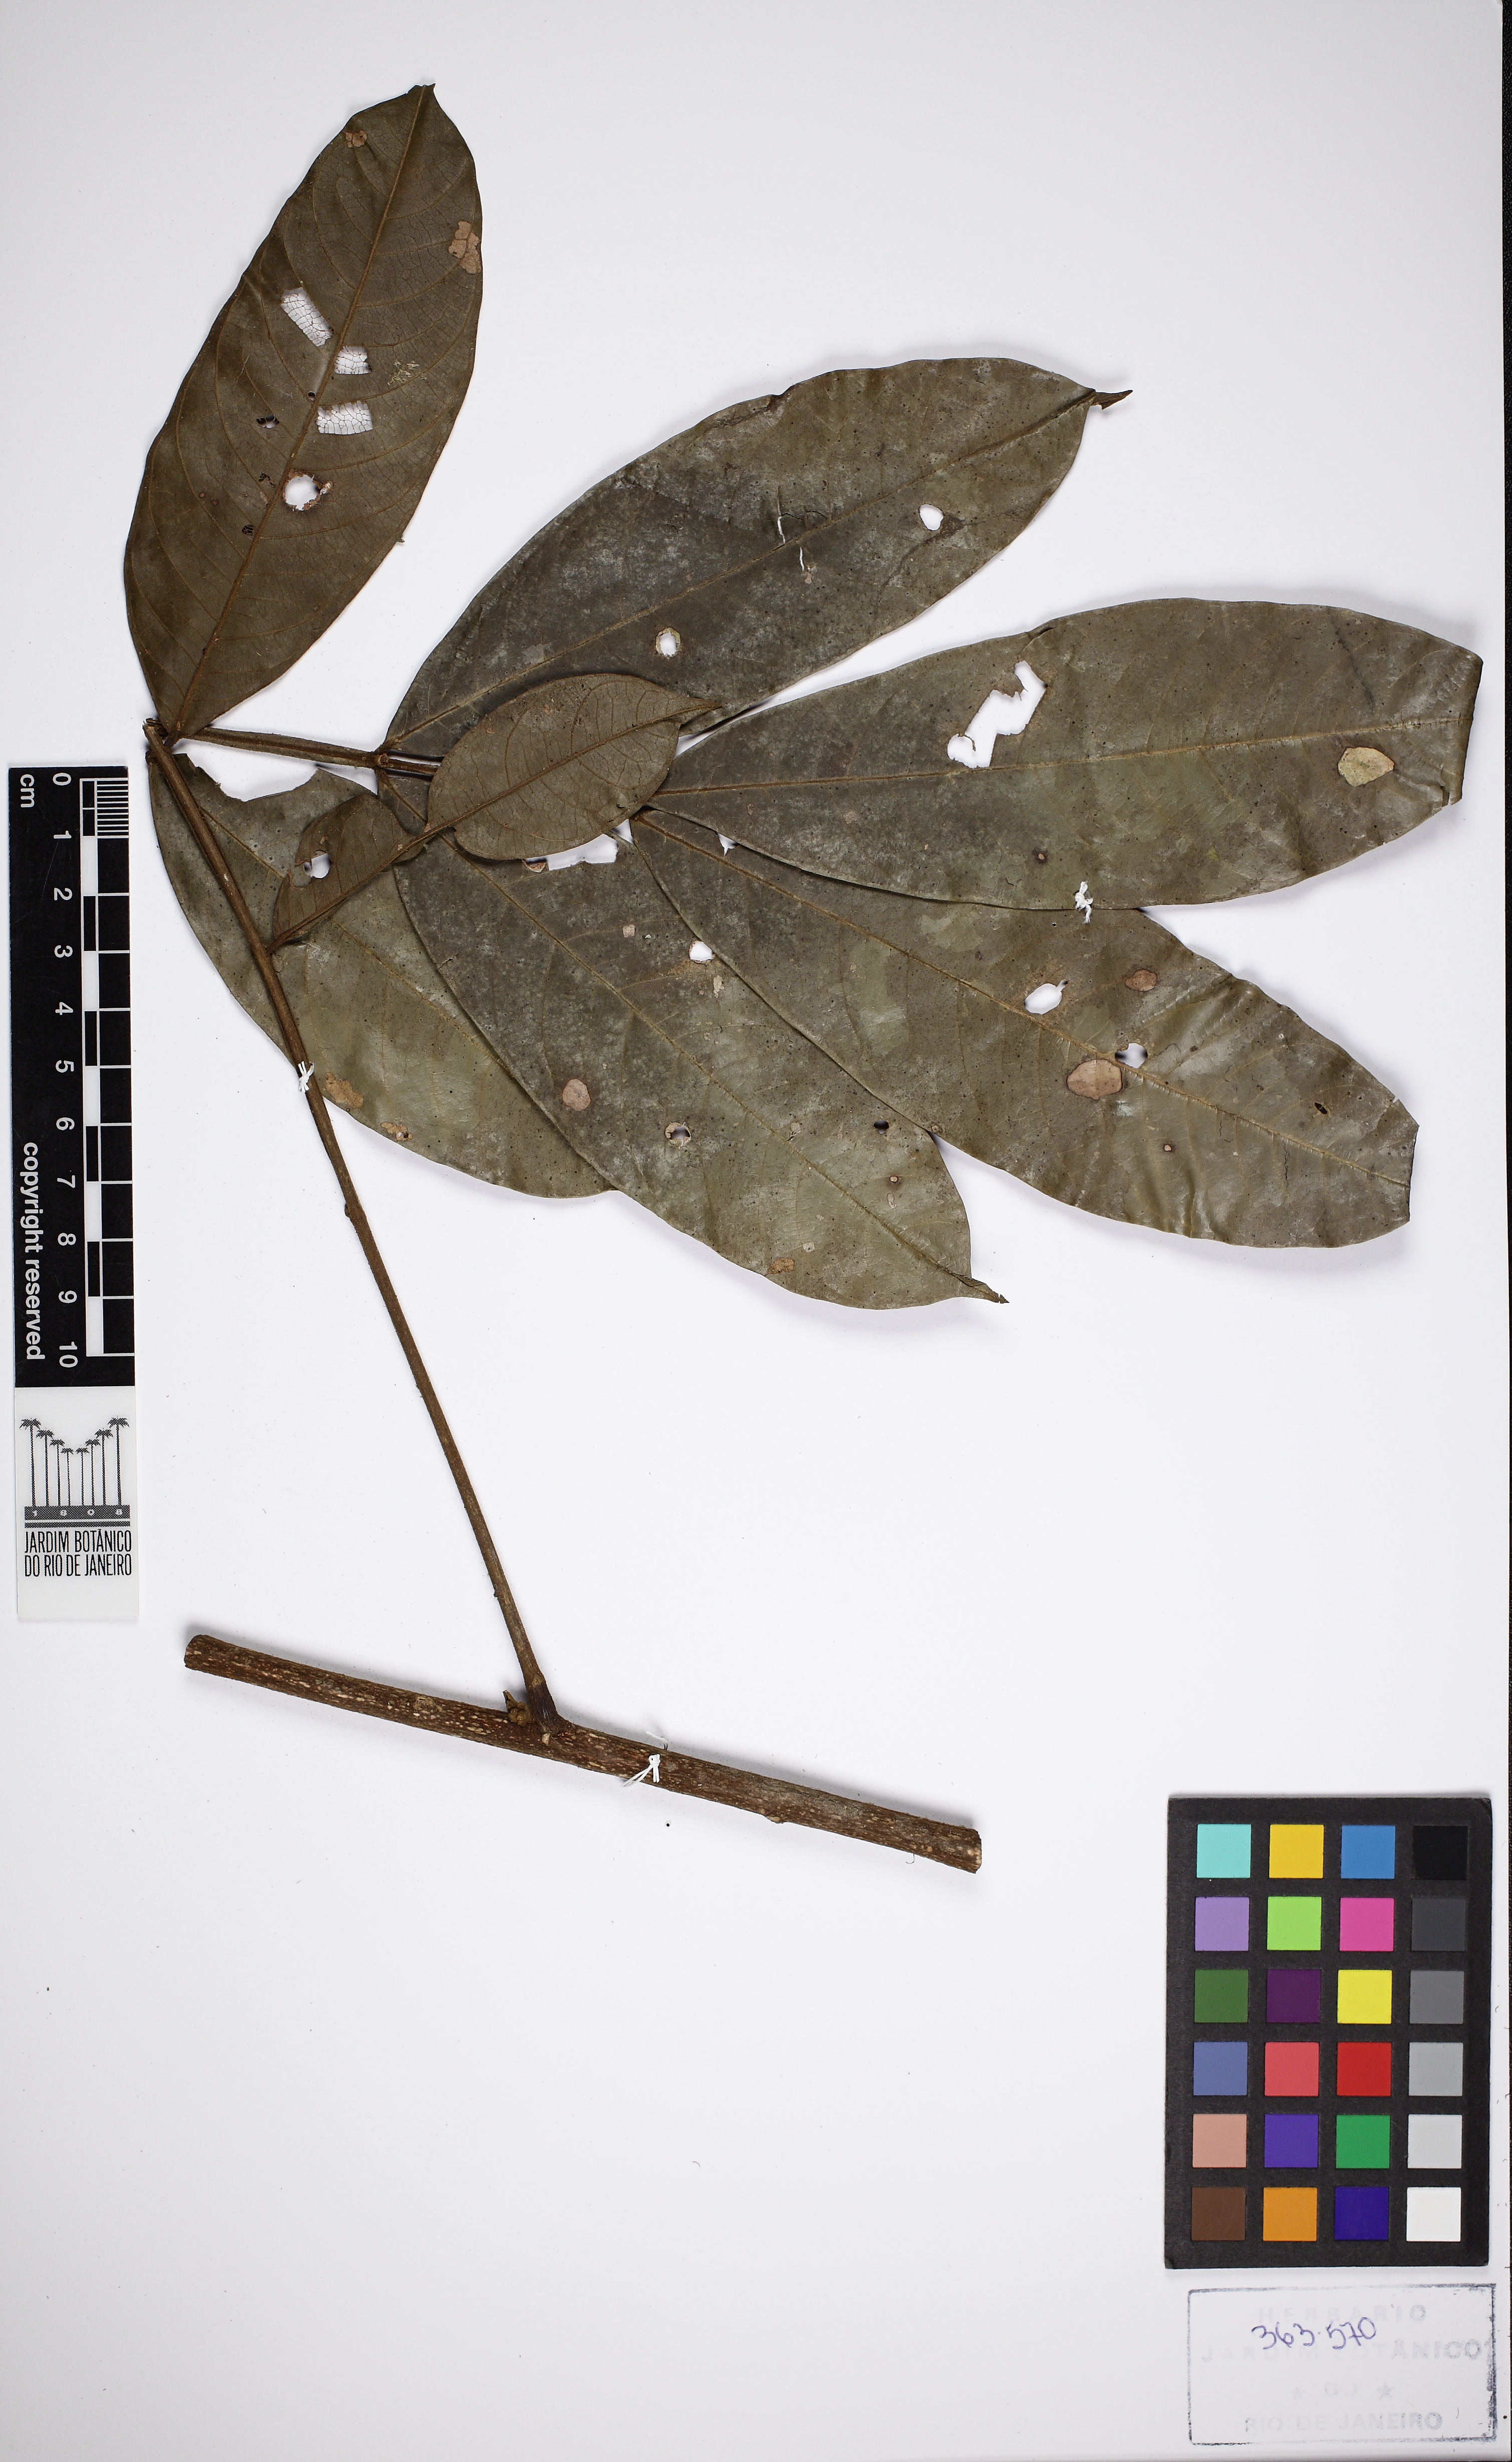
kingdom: Plantae
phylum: Tracheophyta
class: Magnoliopsida
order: Fabales
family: Fabaceae
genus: Inga
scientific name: Inga ruiziana
